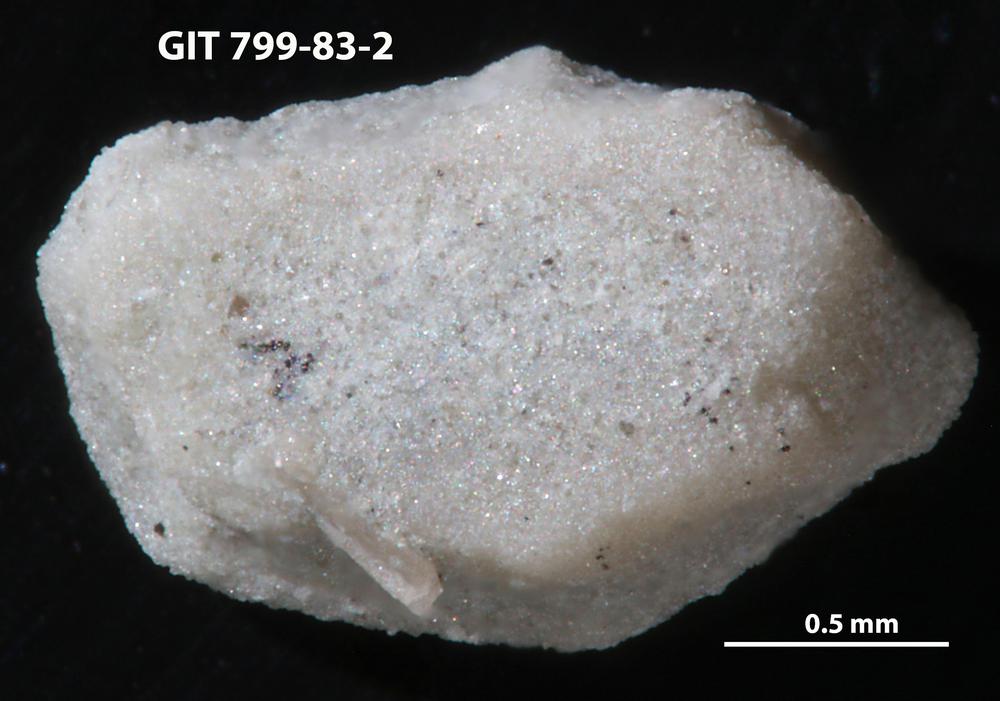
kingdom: Animalia
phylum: Echinodermata
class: Echinoidea
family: Lepidocentridae
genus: Aptilechinus
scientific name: Aptilechinus
